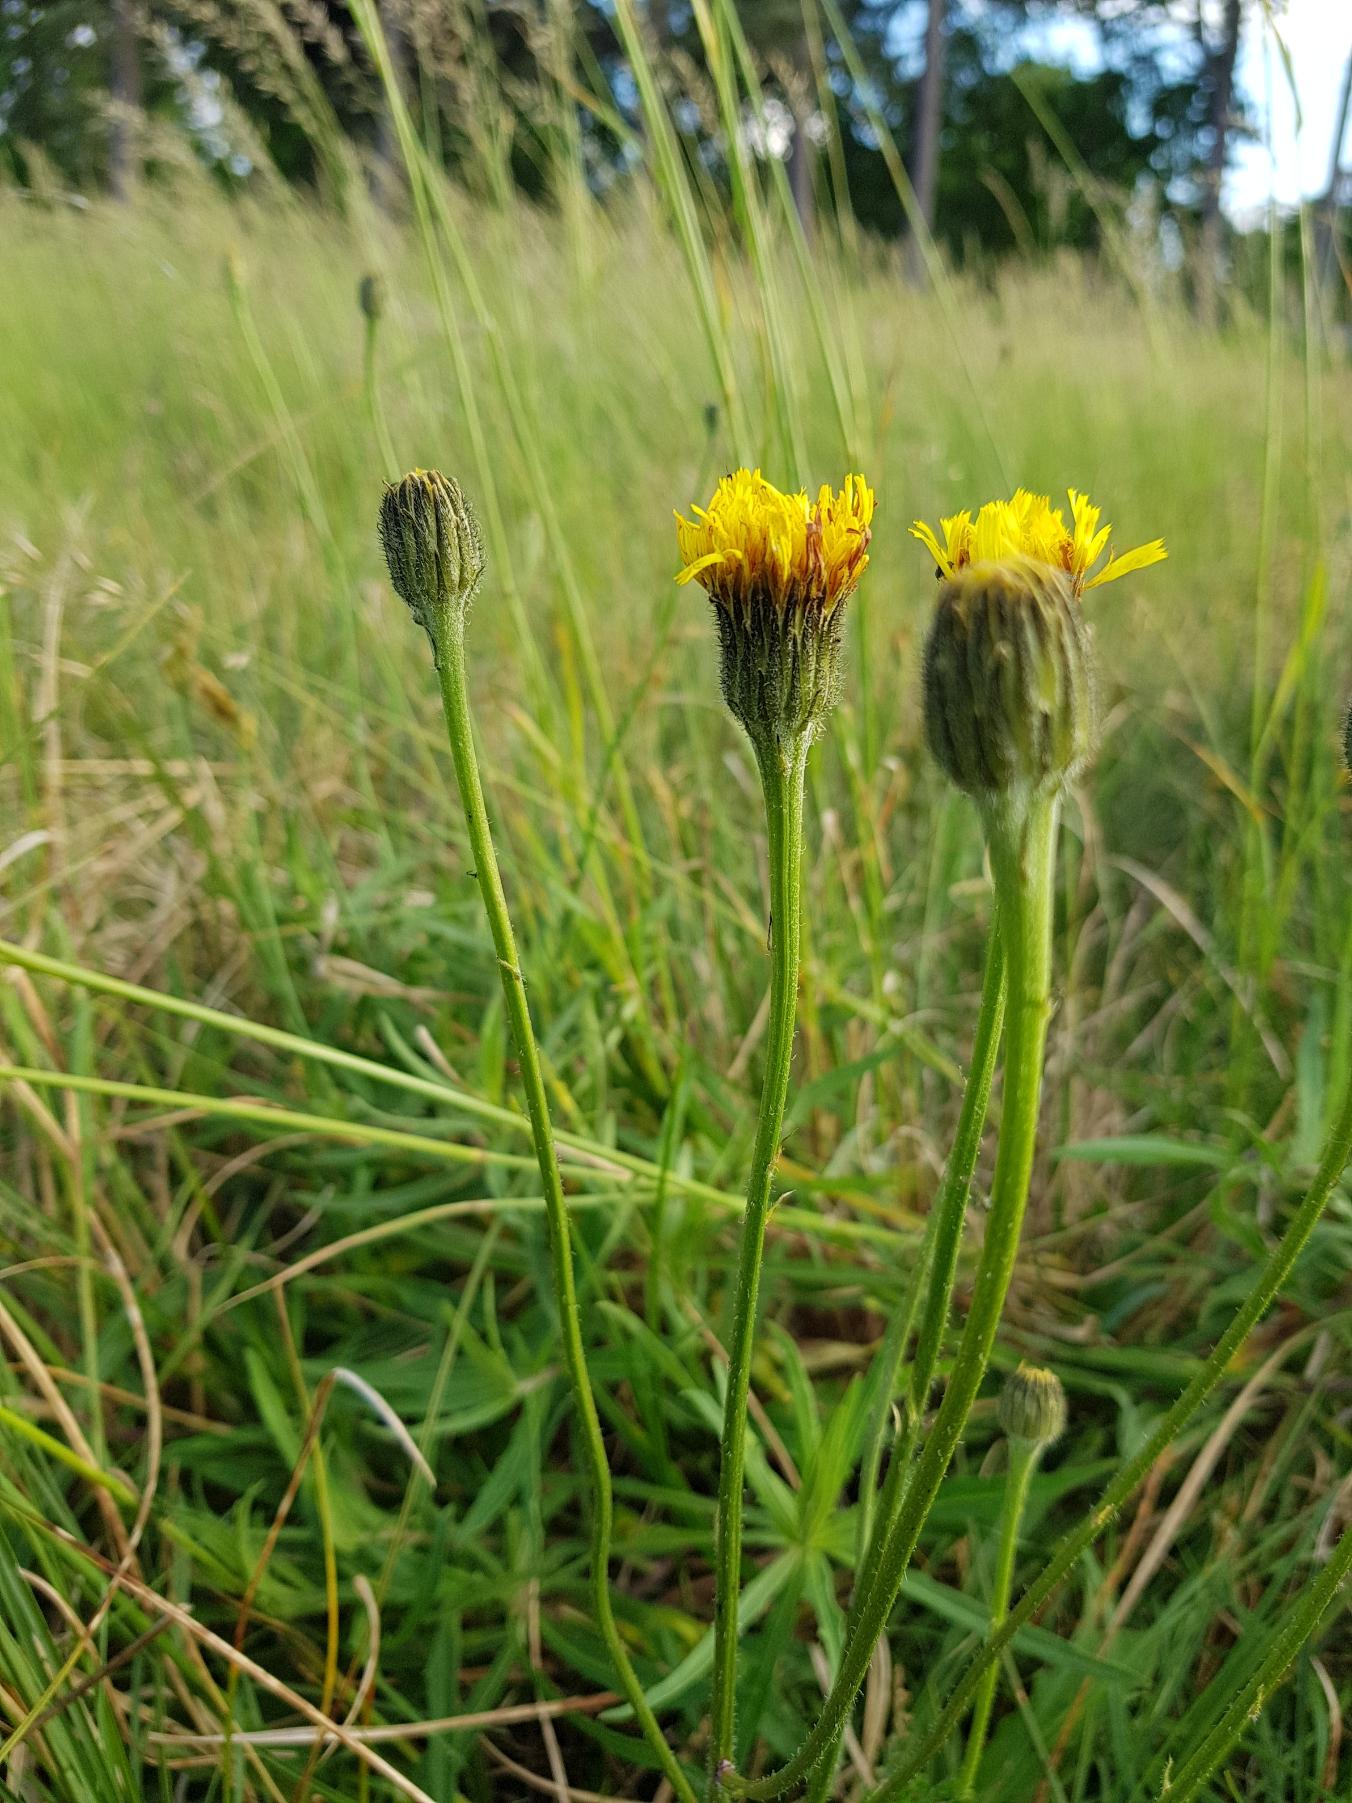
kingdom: Plantae
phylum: Tracheophyta
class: Magnoliopsida
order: Asterales
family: Asteraceae
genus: Trommsdorffia
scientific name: Trommsdorffia maculata
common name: Plettet kongepen
